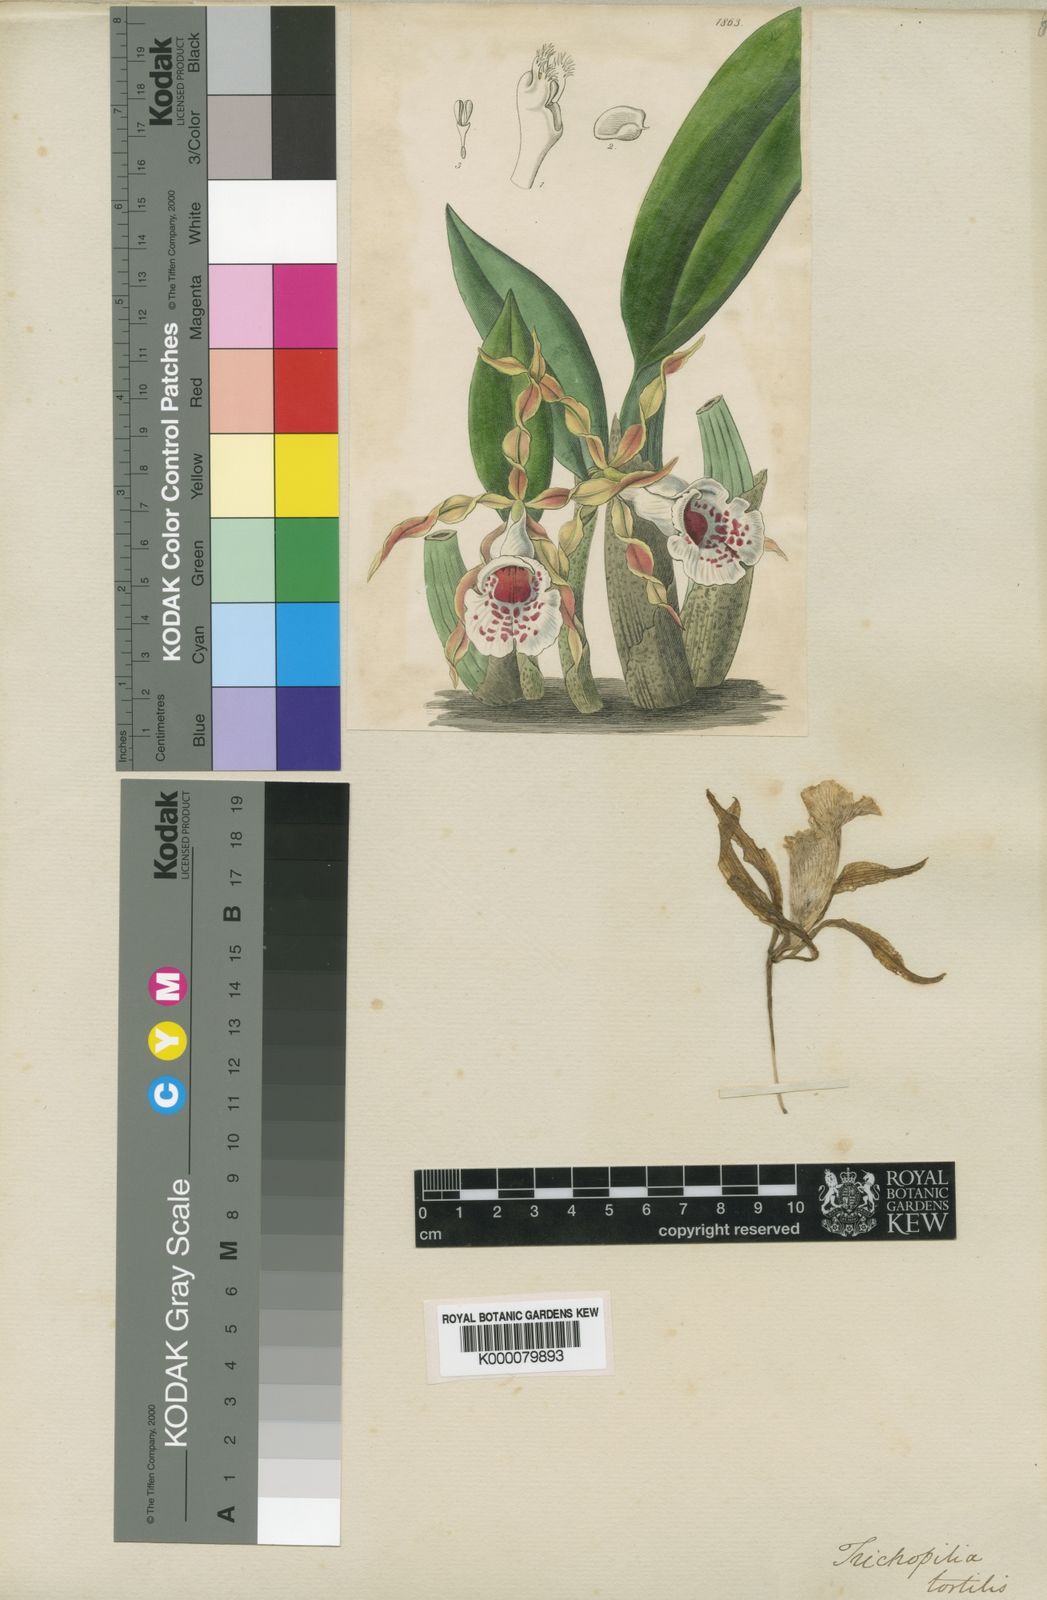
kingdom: Plantae
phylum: Tracheophyta
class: Liliopsida
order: Asparagales
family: Orchidaceae
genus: Trichopilia
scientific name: Trichopilia tortilis
